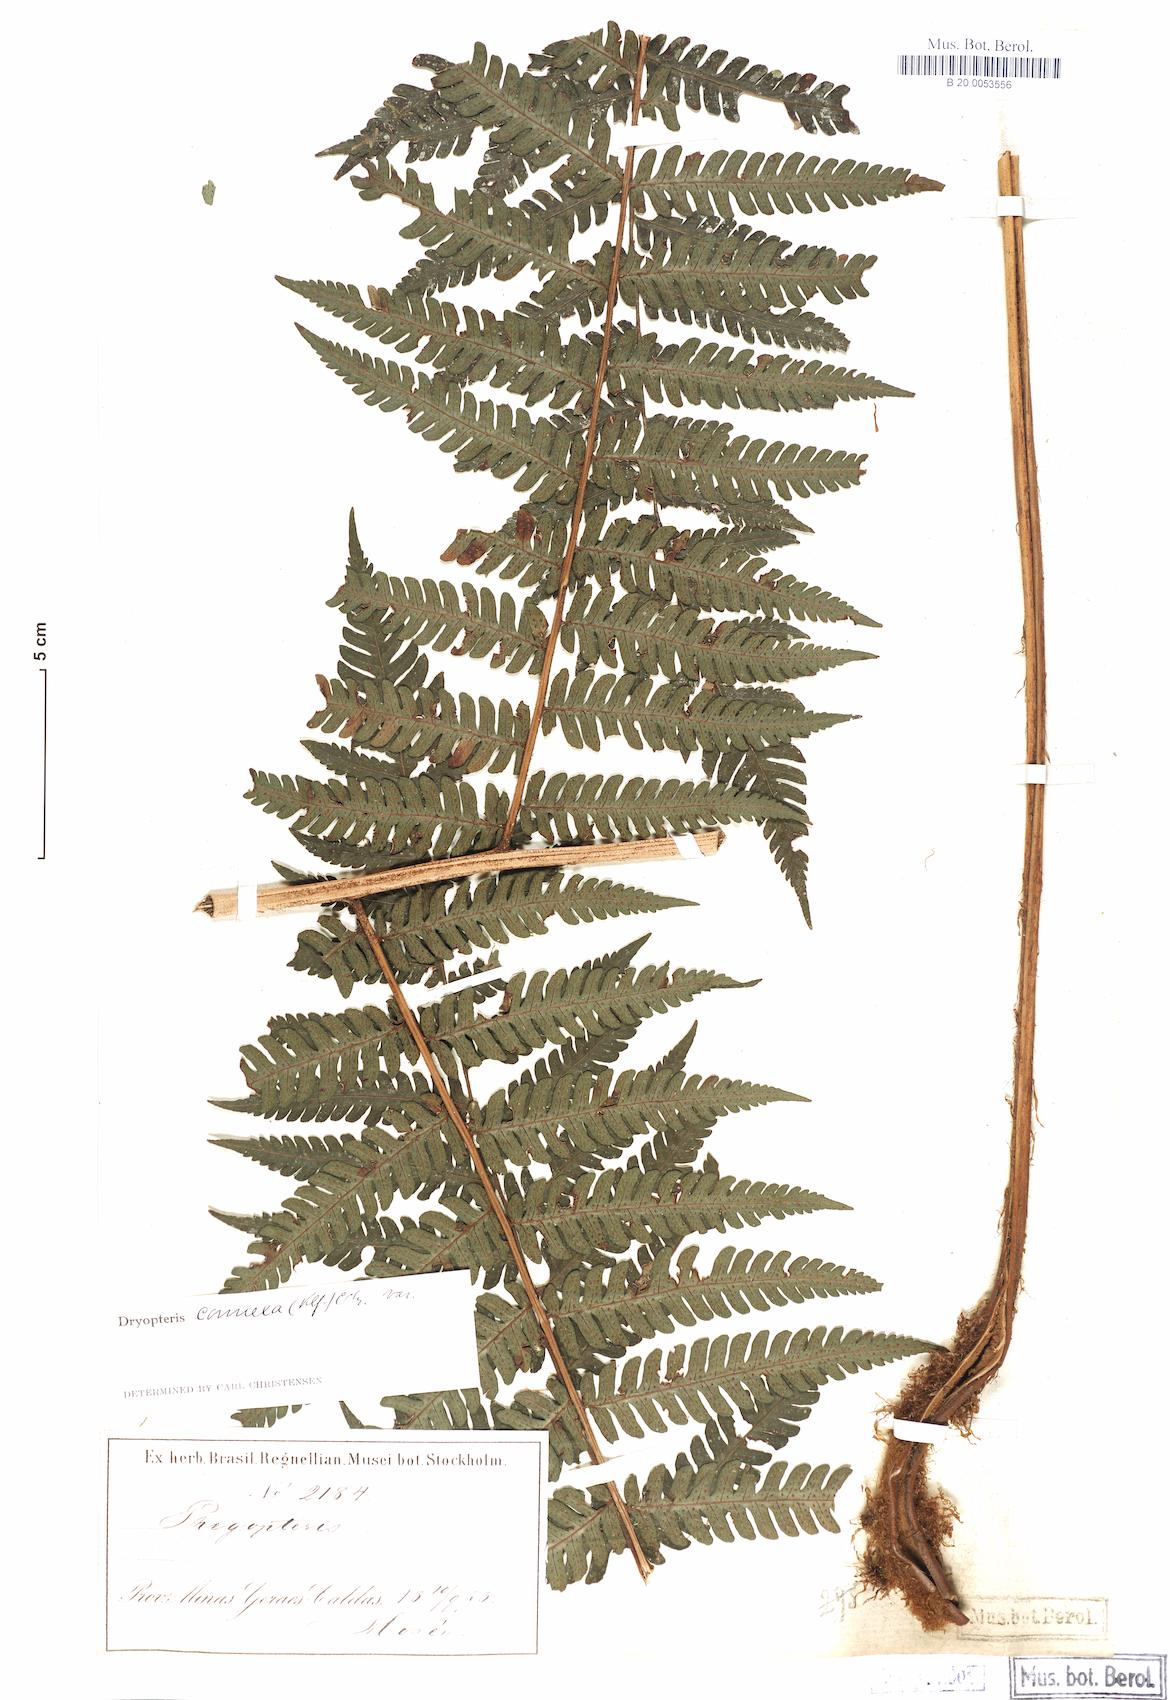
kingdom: Plantae
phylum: Tracheophyta
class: Polypodiopsida
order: Polypodiales
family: Dryopteridaceae
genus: Megalastrum
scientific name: Megalastrum connexum
